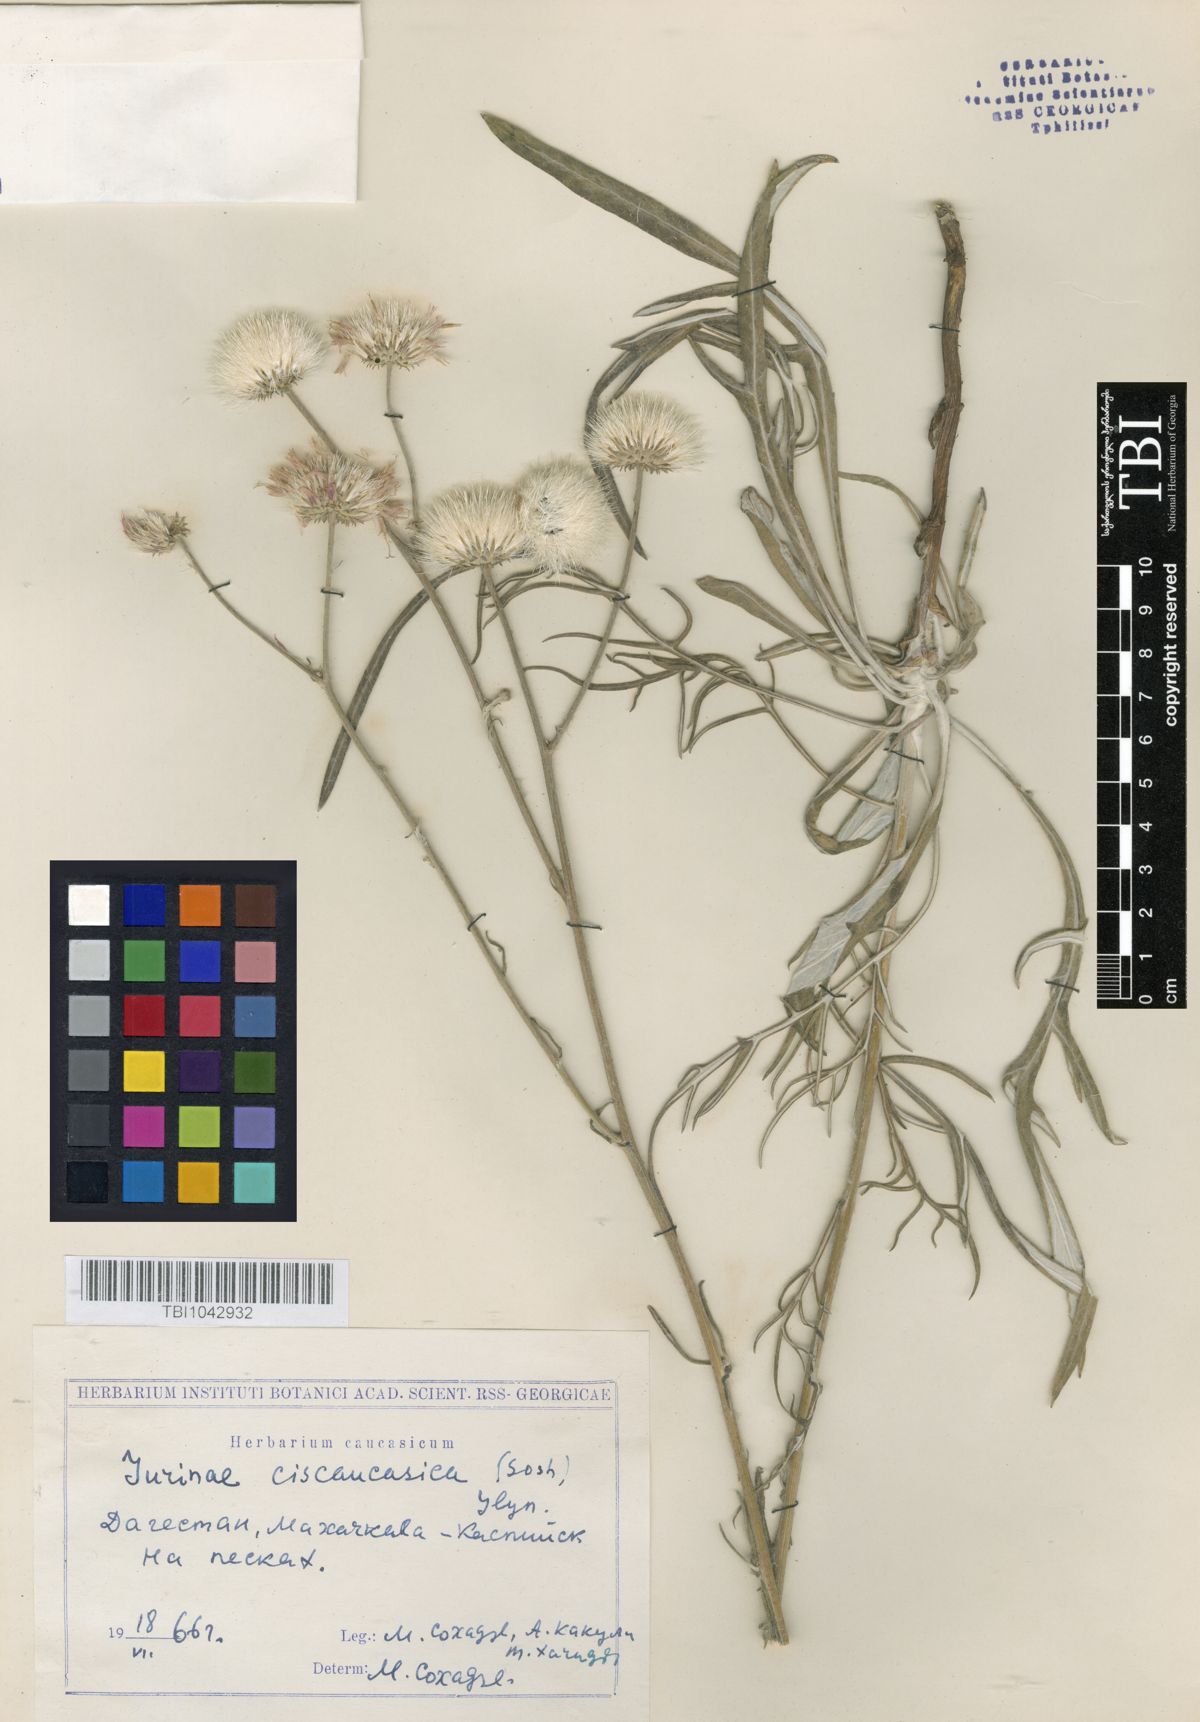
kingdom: Plantae
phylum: Tracheophyta
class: Magnoliopsida
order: Asterales
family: Asteraceae
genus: Jurinea
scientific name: Jurinea ciscaucasica
